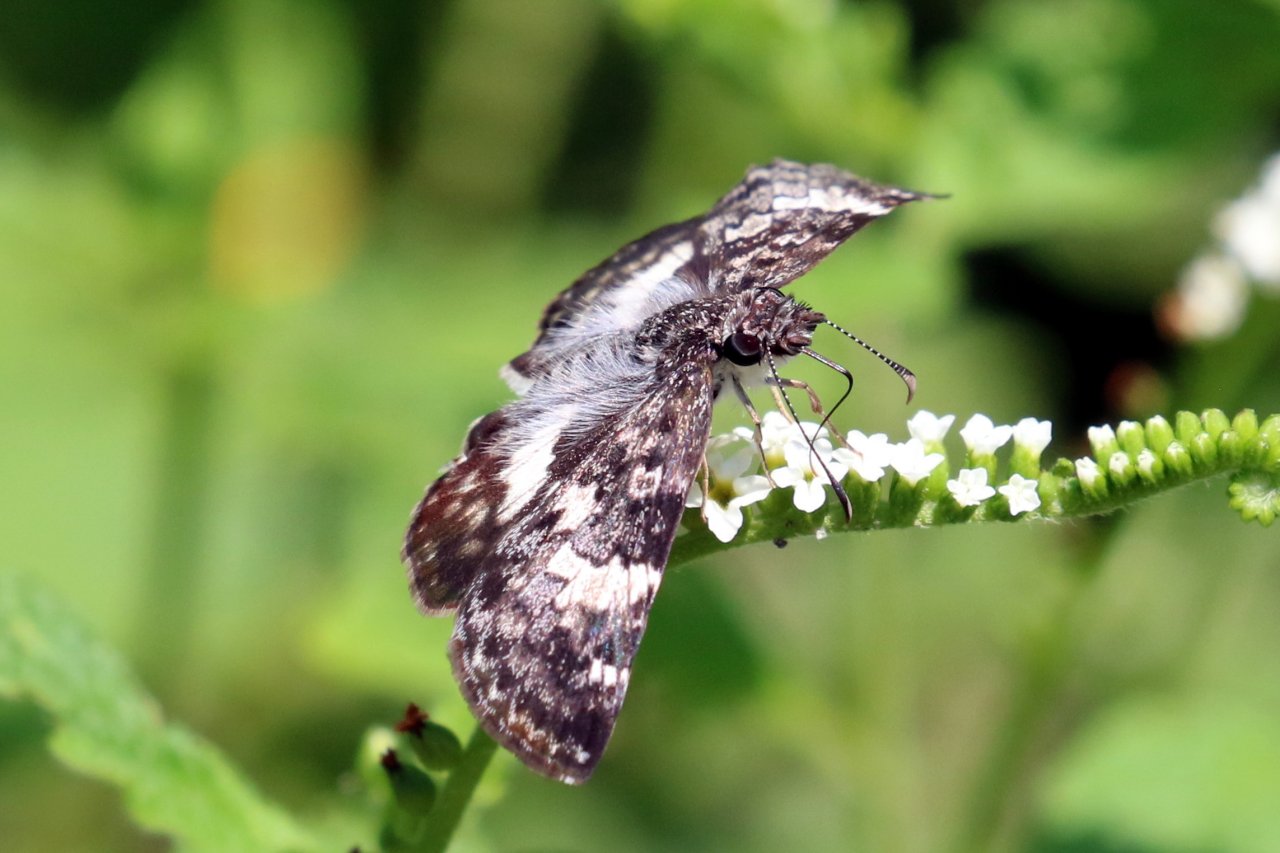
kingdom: Animalia
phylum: Arthropoda
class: Insecta
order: Lepidoptera
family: Hesperiidae
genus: Chiomara
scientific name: Chiomara asychis
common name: White-patched Skipper
